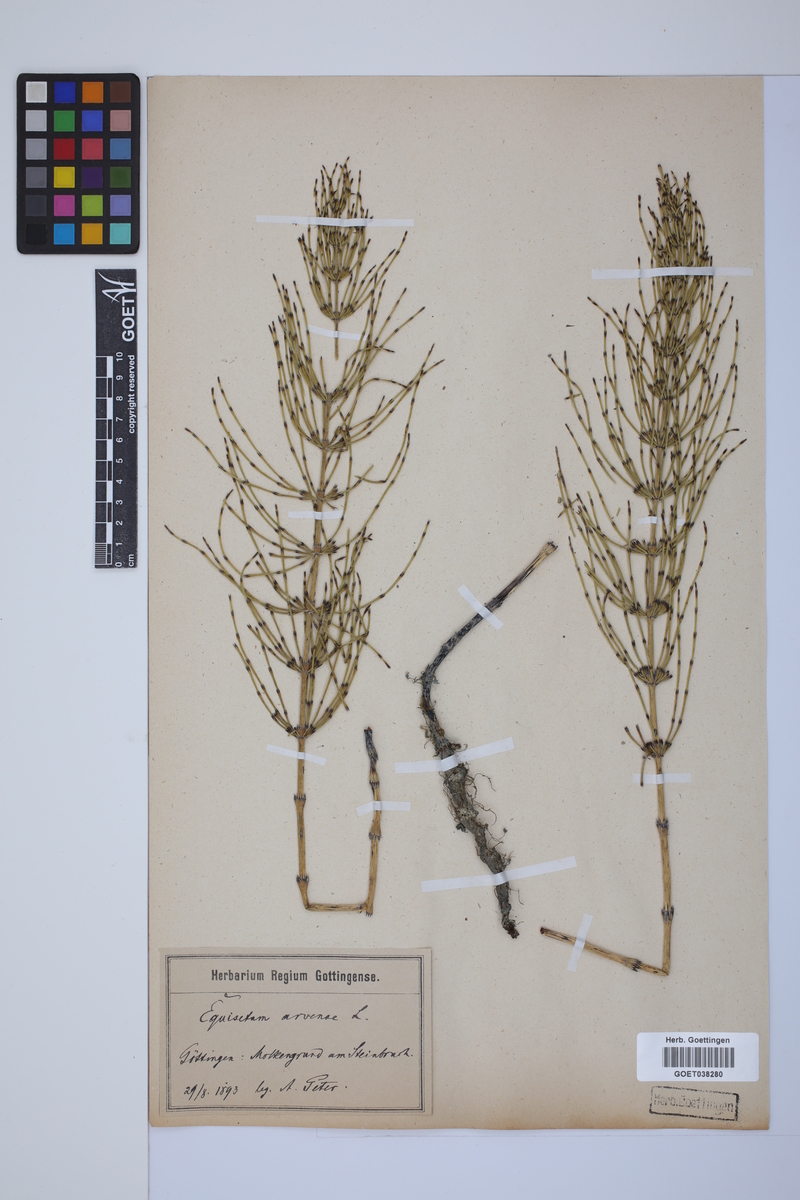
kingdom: Plantae
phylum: Tracheophyta
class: Polypodiopsida
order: Equisetales
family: Equisetaceae
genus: Equisetum
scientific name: Equisetum arvense
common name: Field horsetail
